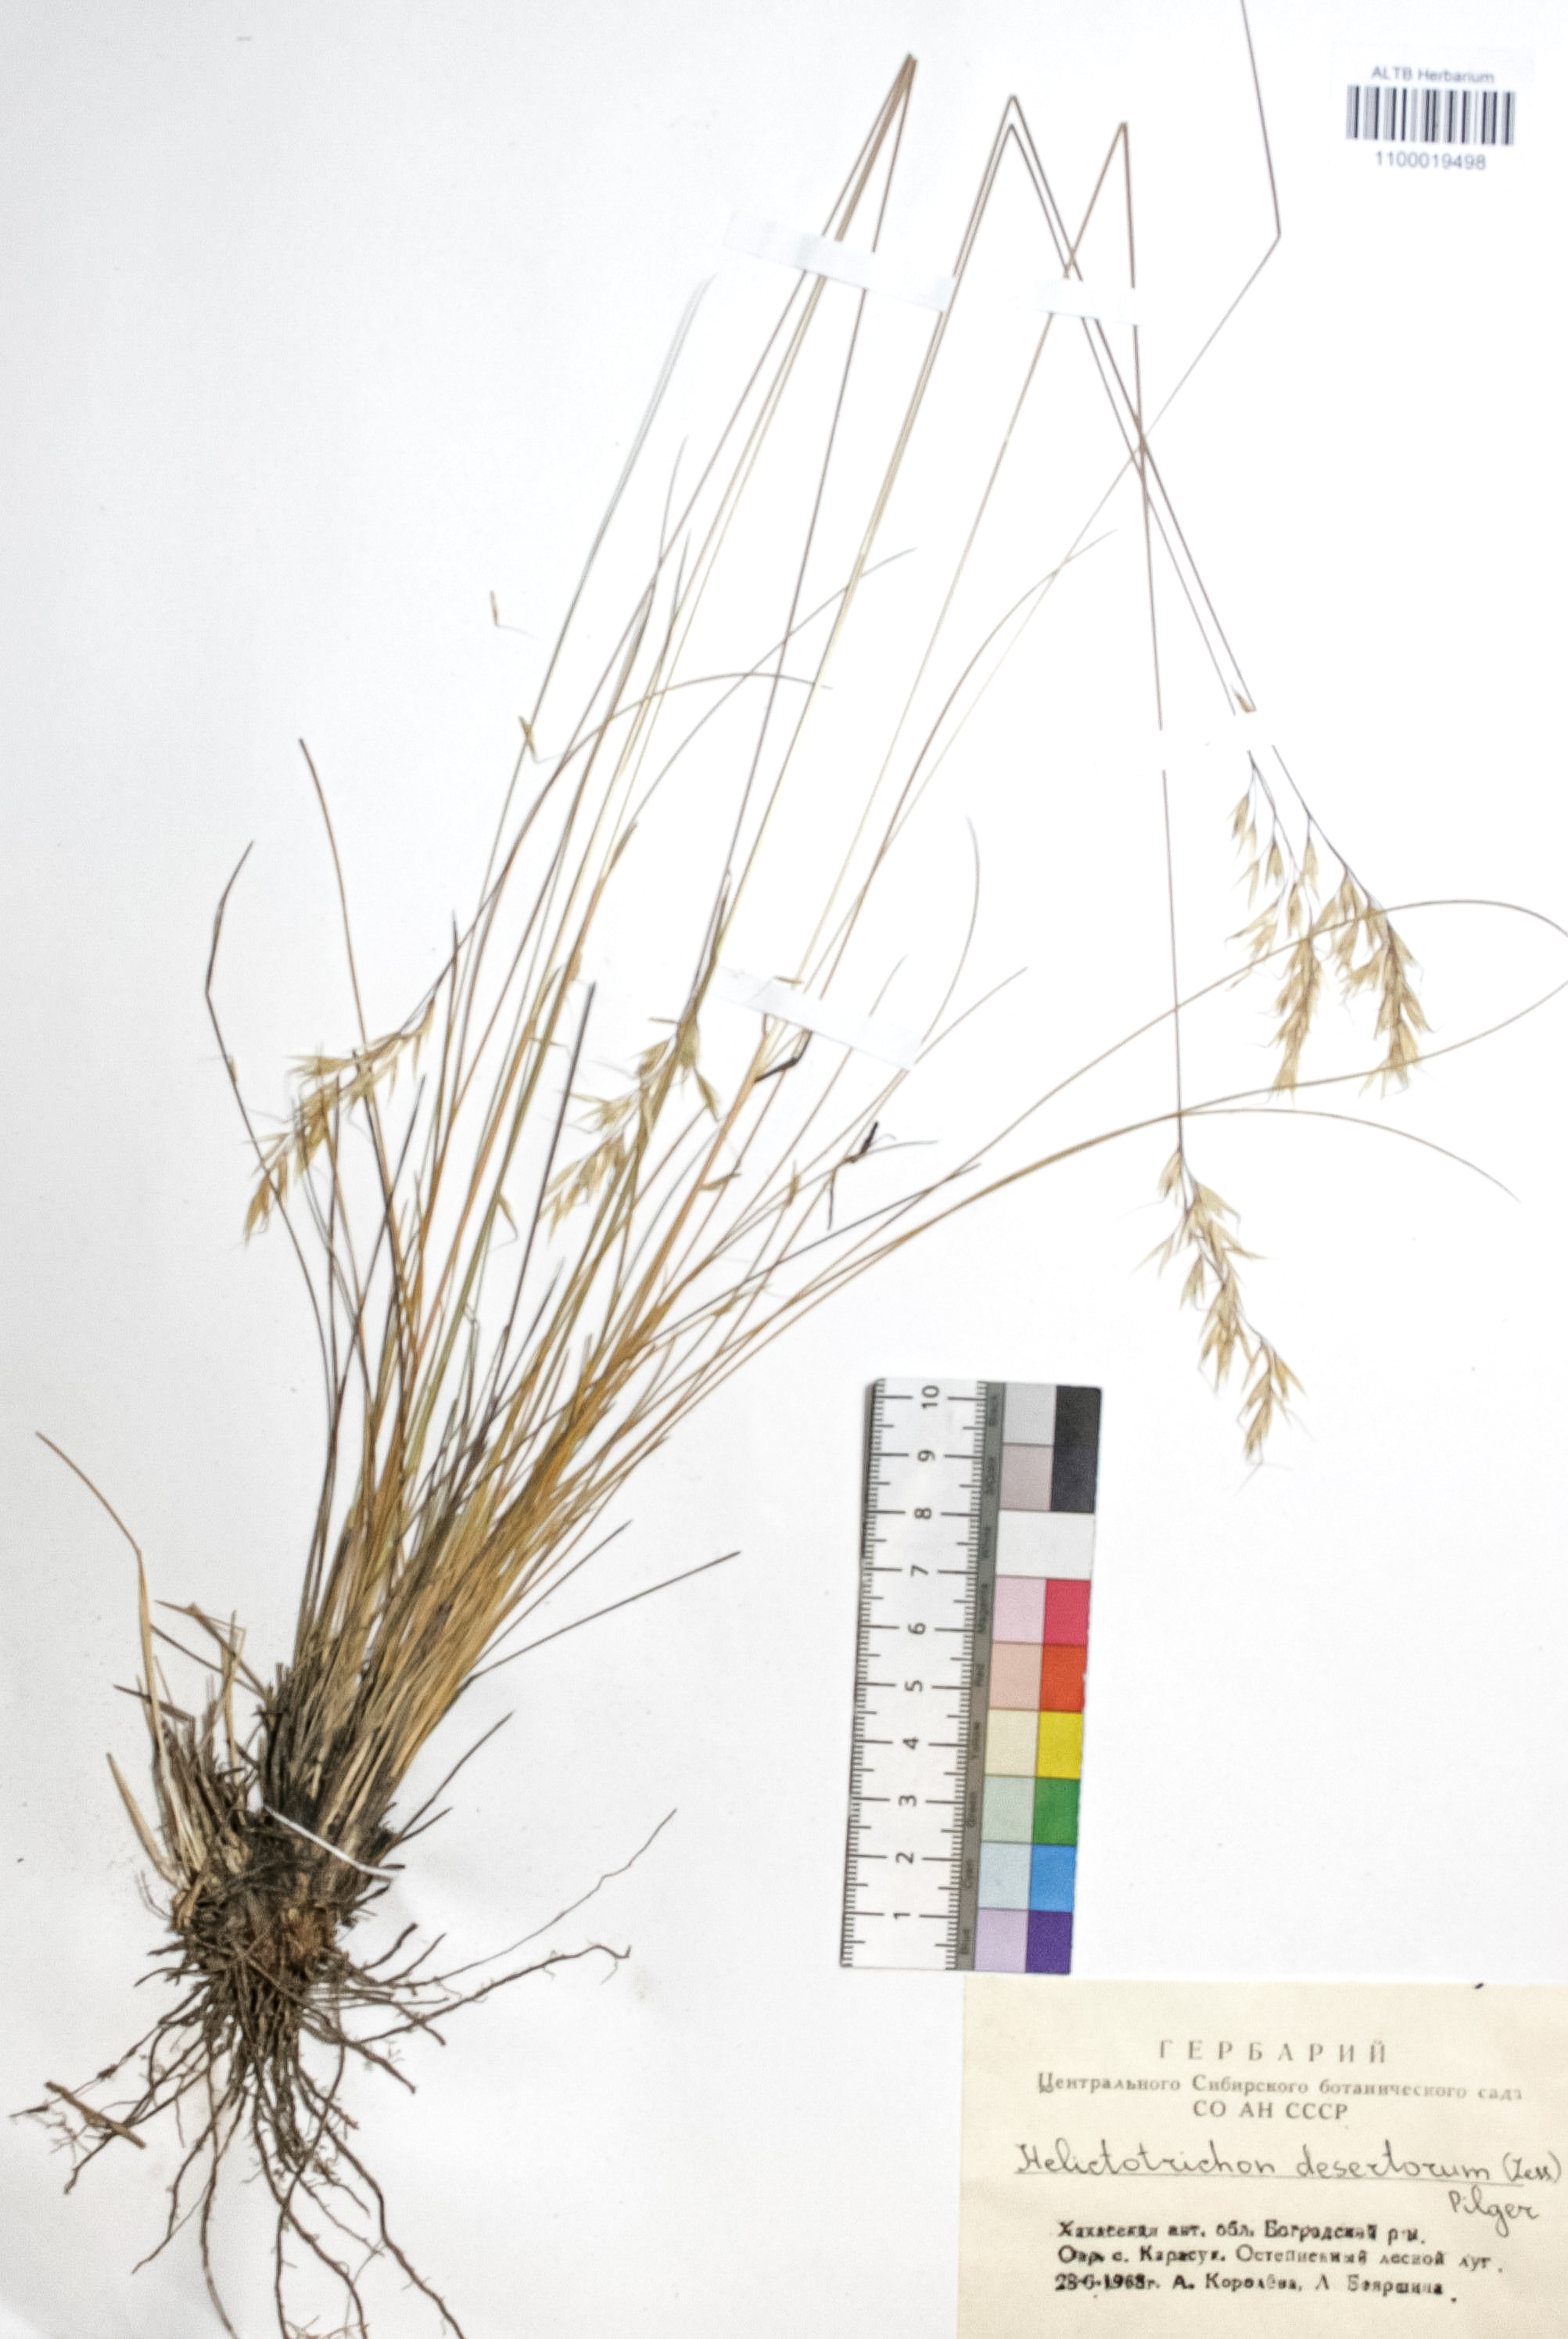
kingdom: Plantae
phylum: Tracheophyta
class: Liliopsida
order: Poales
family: Poaceae
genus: Helictotrichon
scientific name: Helictotrichon desertorum
